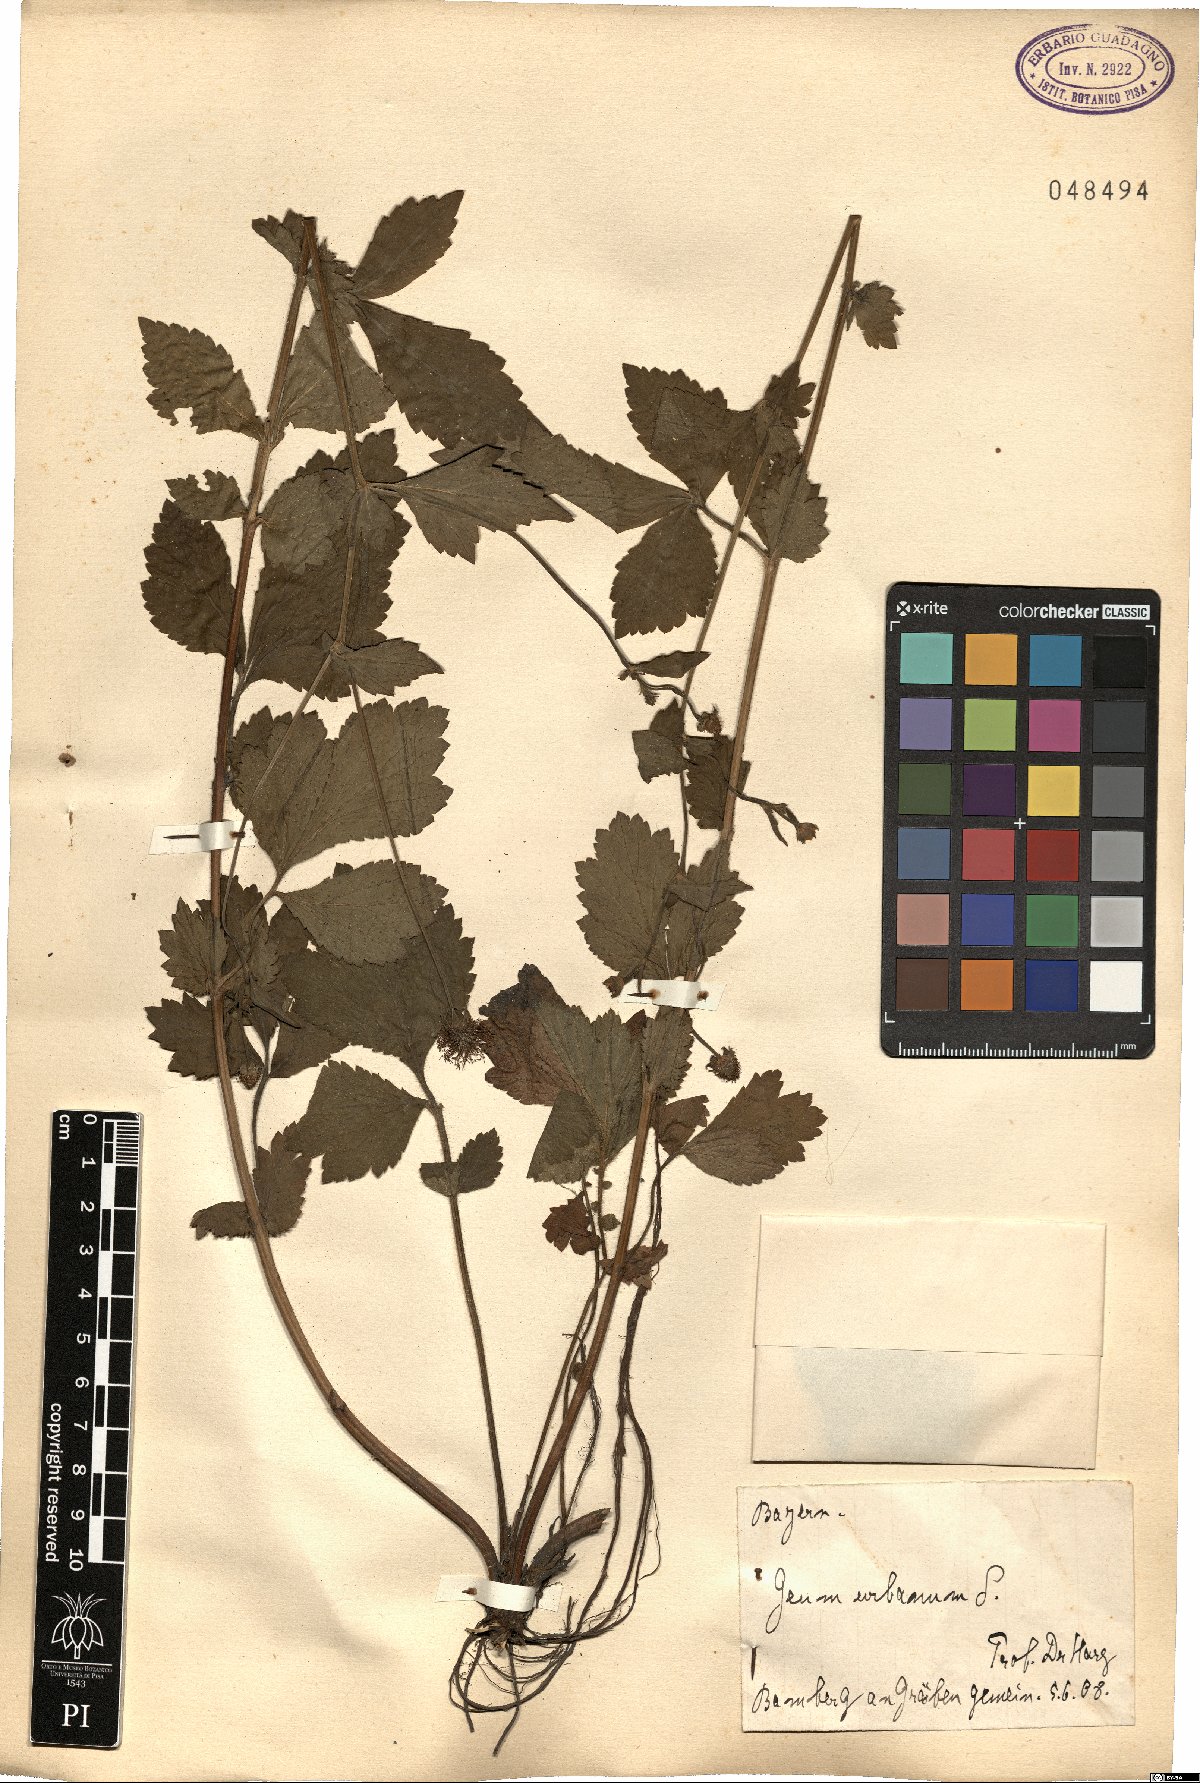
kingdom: Plantae
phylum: Tracheophyta
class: Magnoliopsida
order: Rosales
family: Rosaceae
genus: Geum
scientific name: Geum urbanum
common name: Wood avens
